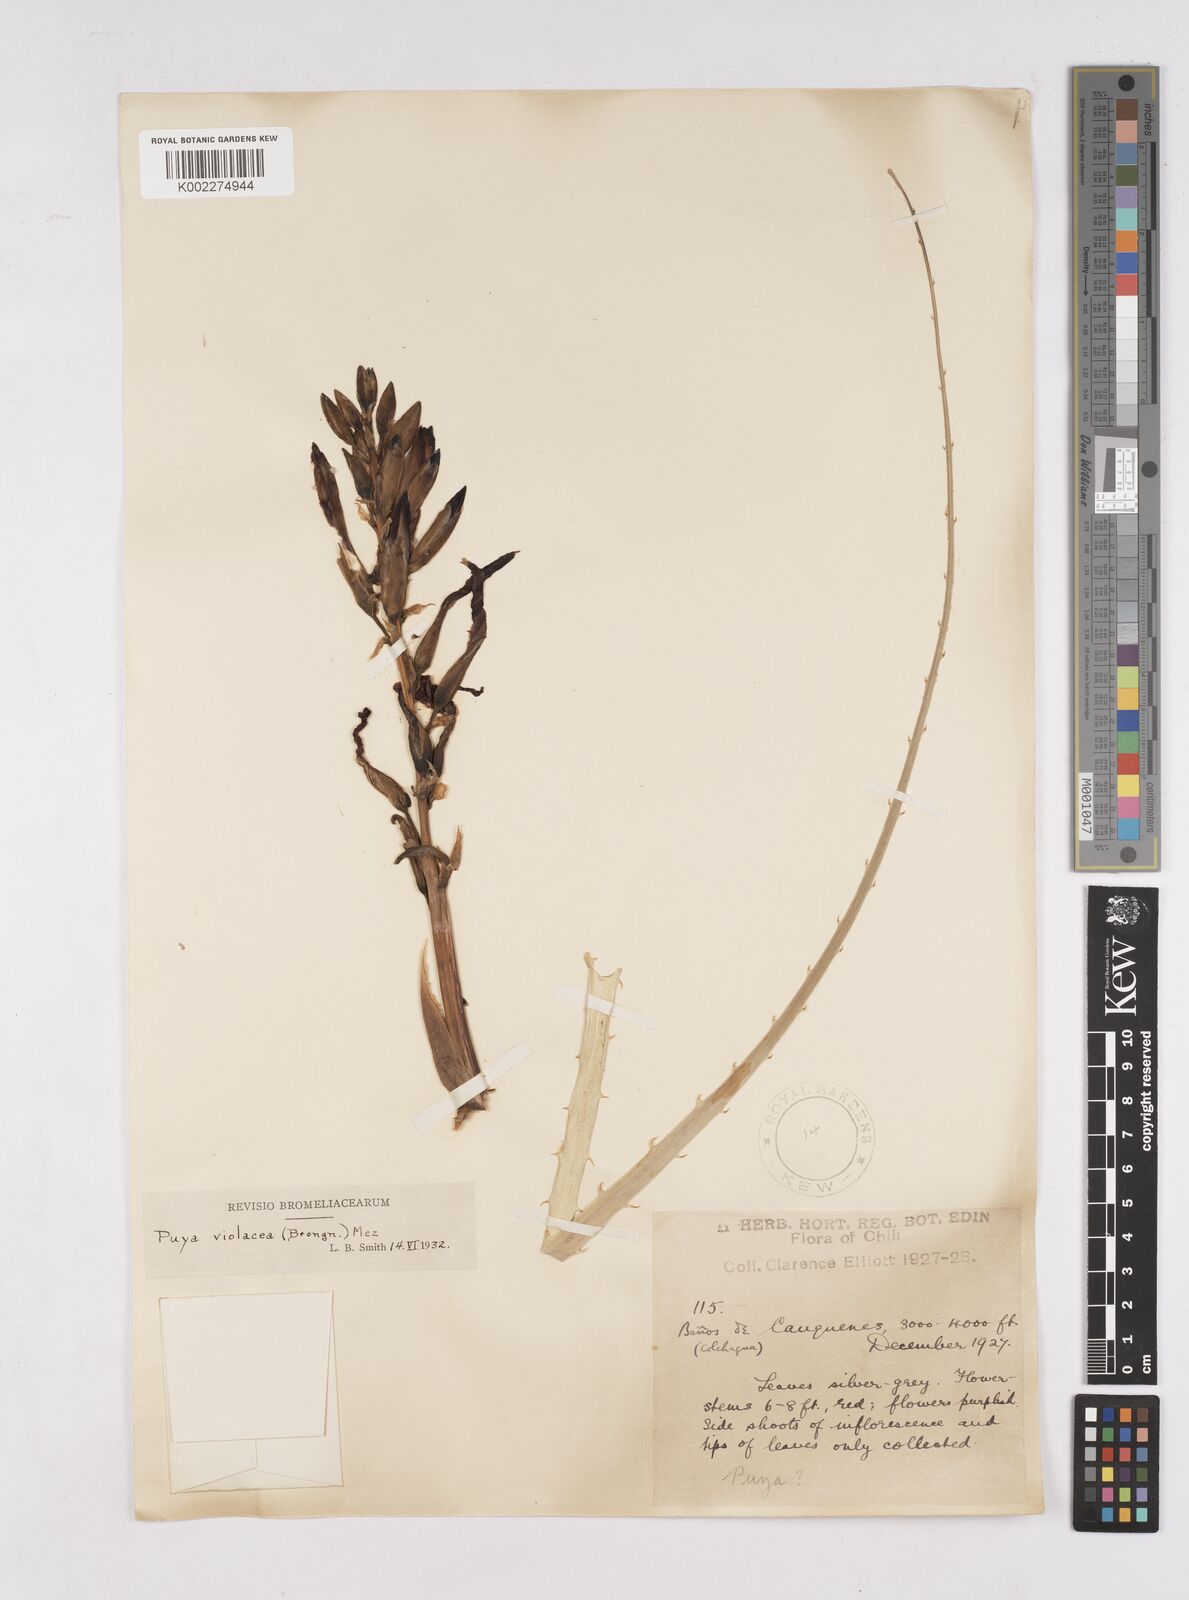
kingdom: Plantae
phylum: Tracheophyta
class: Liliopsida
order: Poales
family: Bromeliaceae
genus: Puya
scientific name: Puya coerulea
